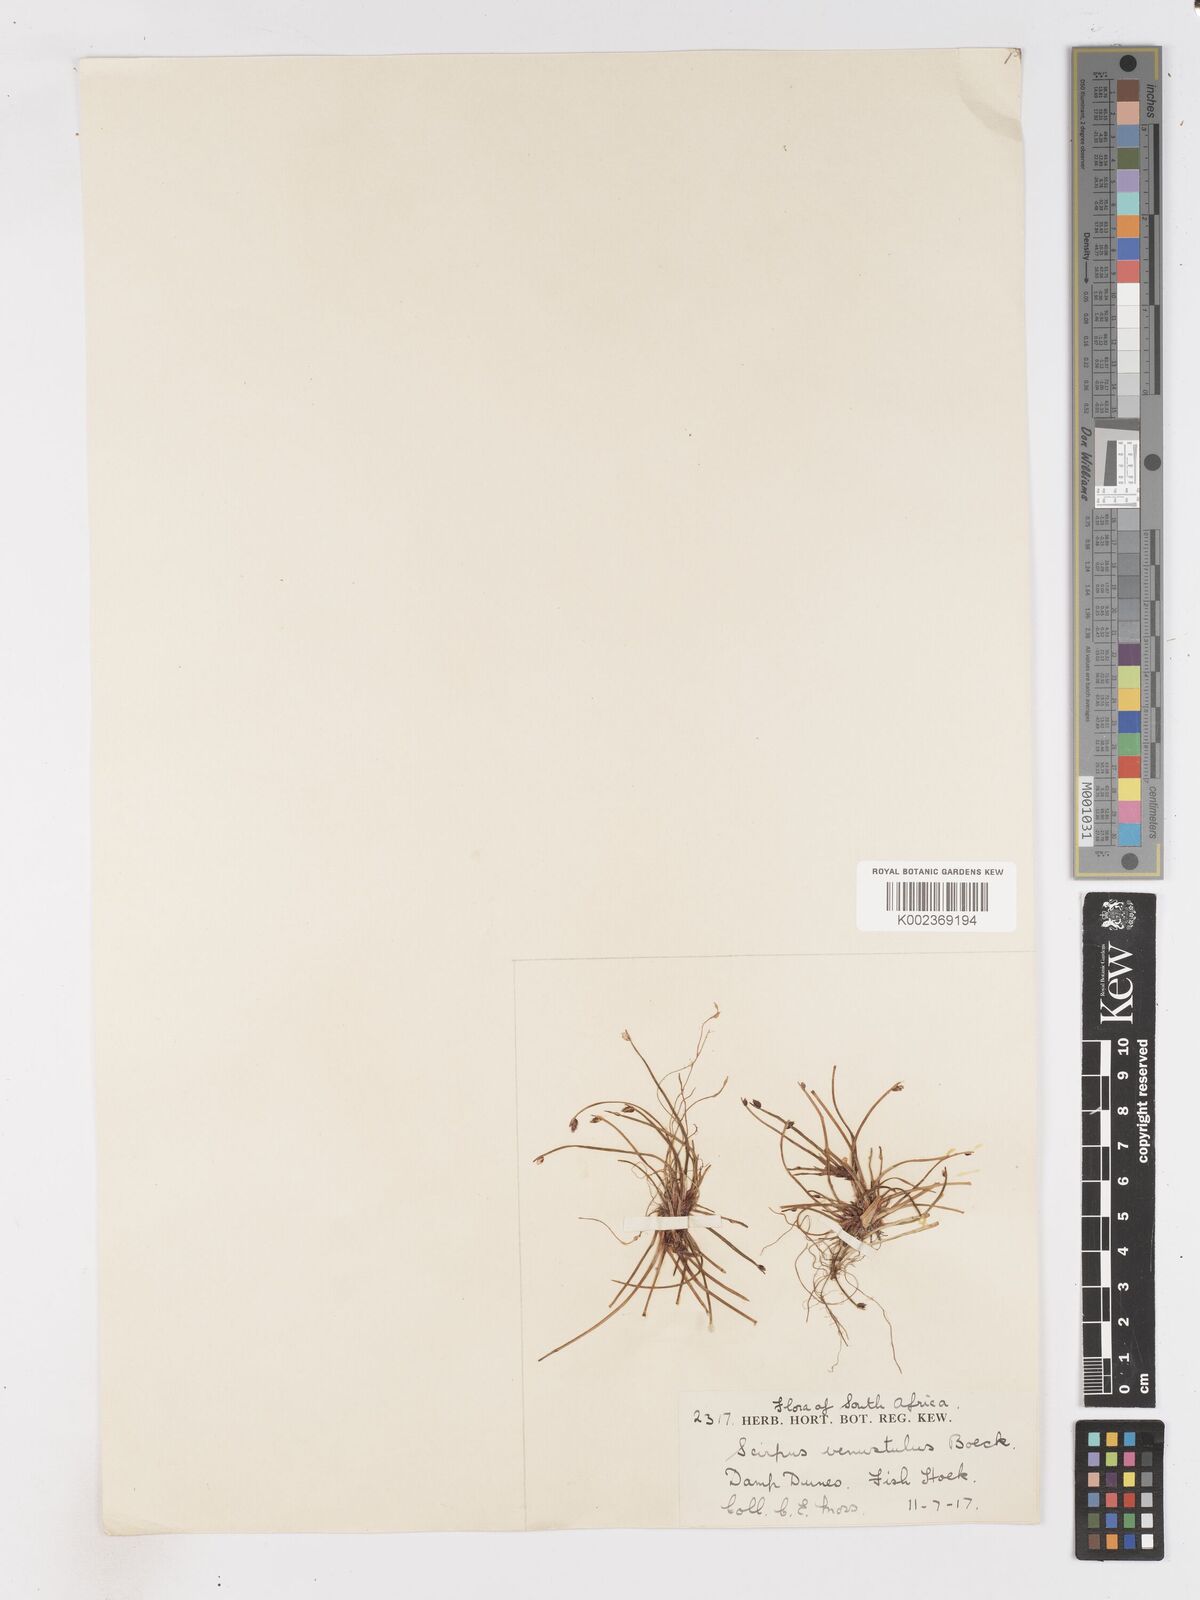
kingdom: Plantae
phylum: Tracheophyta
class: Liliopsida
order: Poales
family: Cyperaceae
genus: Isolepis
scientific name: Isolepis venustula
